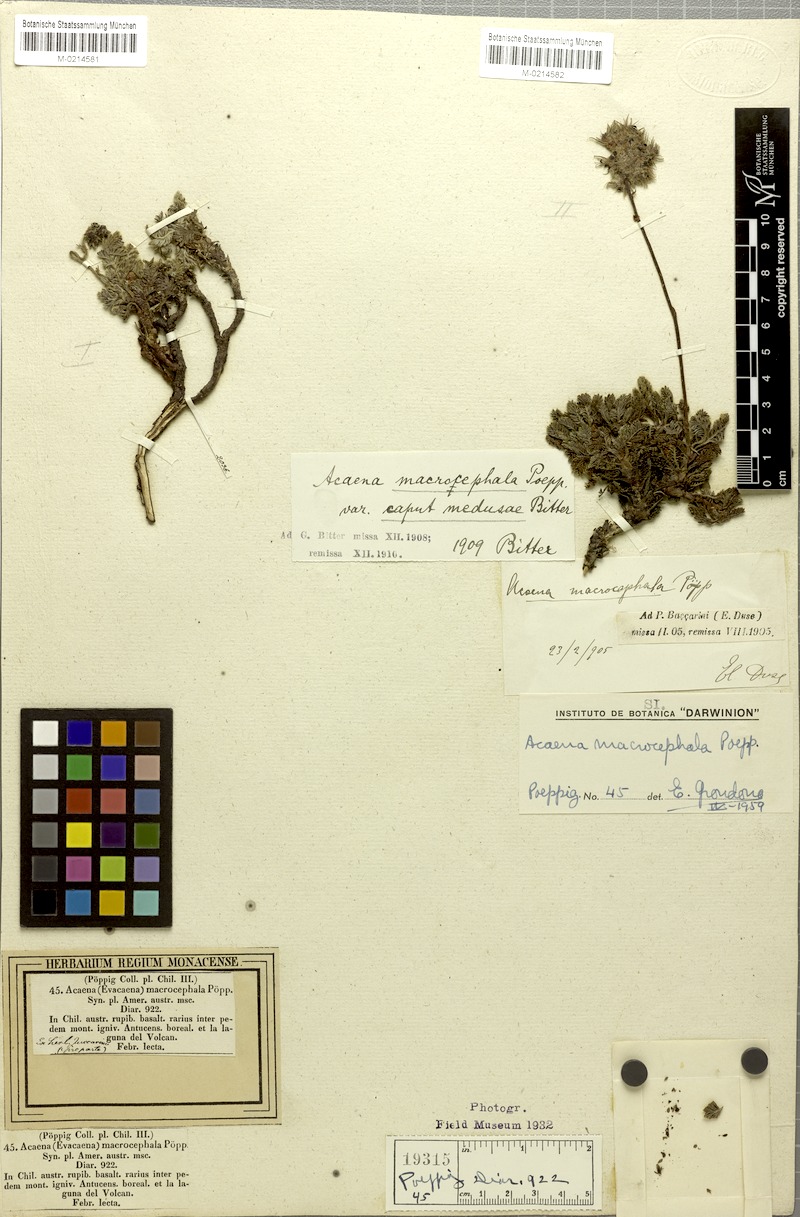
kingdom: Plantae
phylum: Tracheophyta
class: Magnoliopsida
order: Rosales
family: Rosaceae
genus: Acaena
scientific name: Acaena macrocephala
